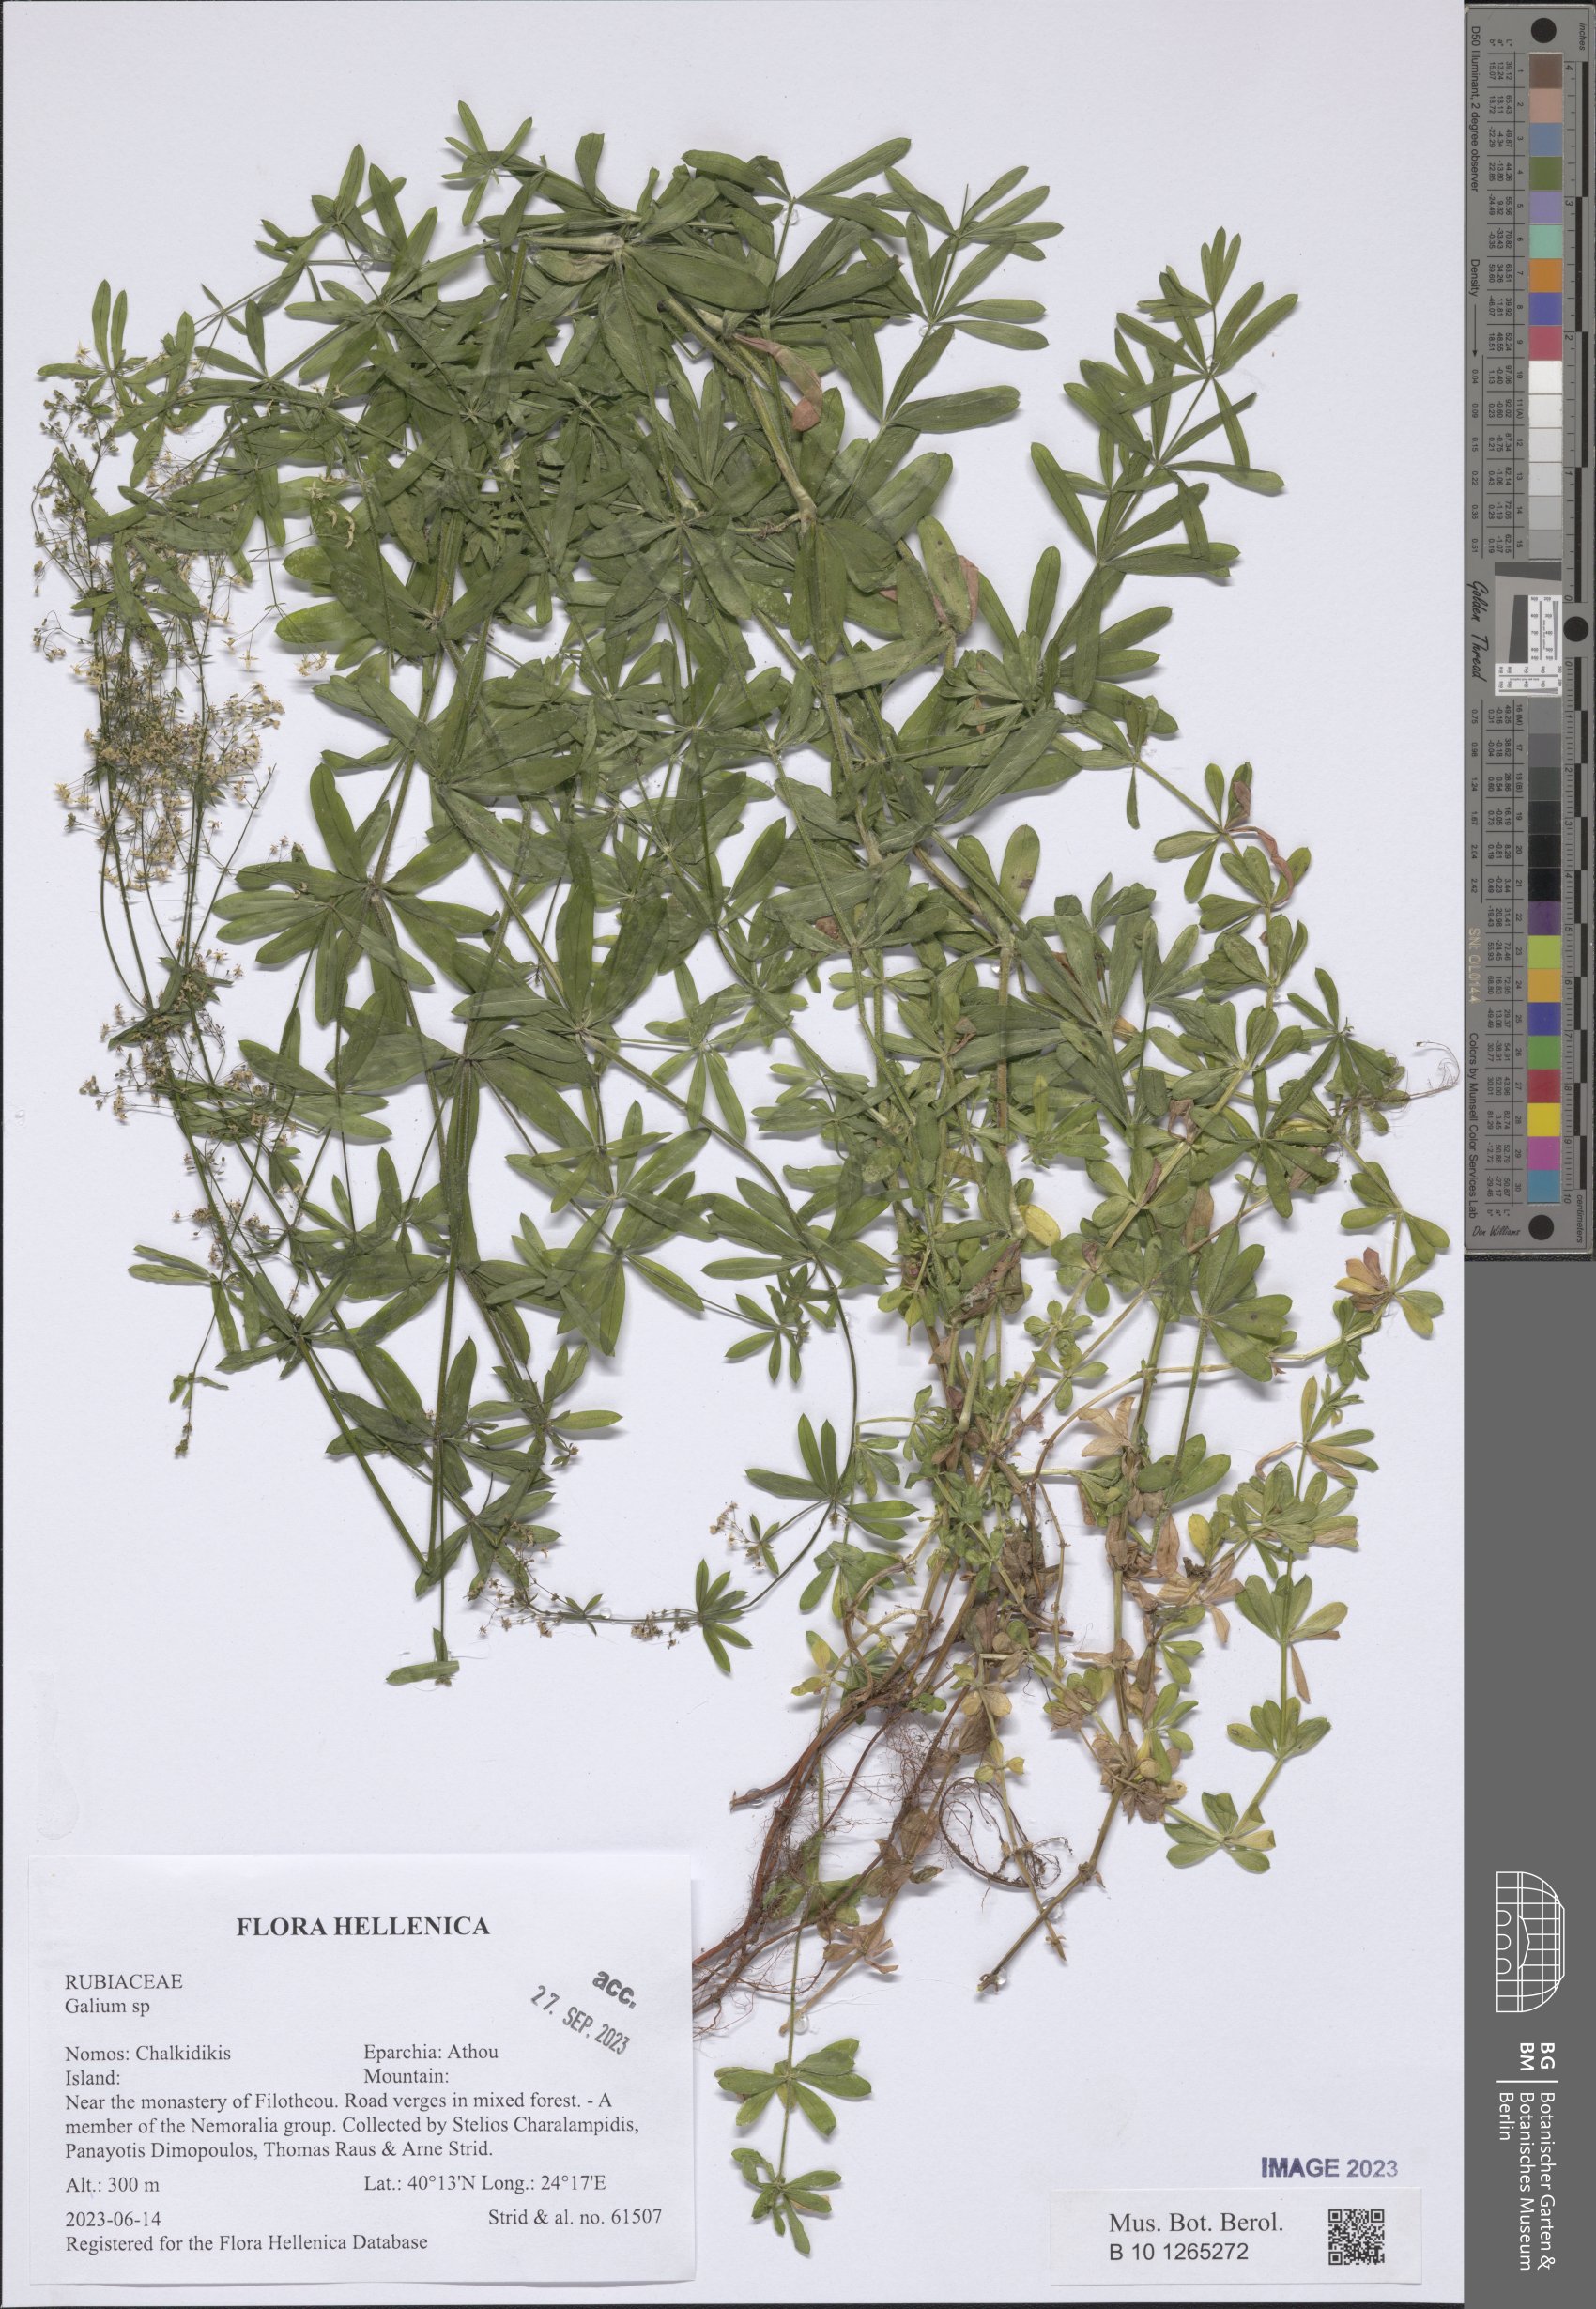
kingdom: Plantae
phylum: Tracheophyta
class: Magnoliopsida
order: Gentianales
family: Rubiaceae
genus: Galium
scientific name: Galium
